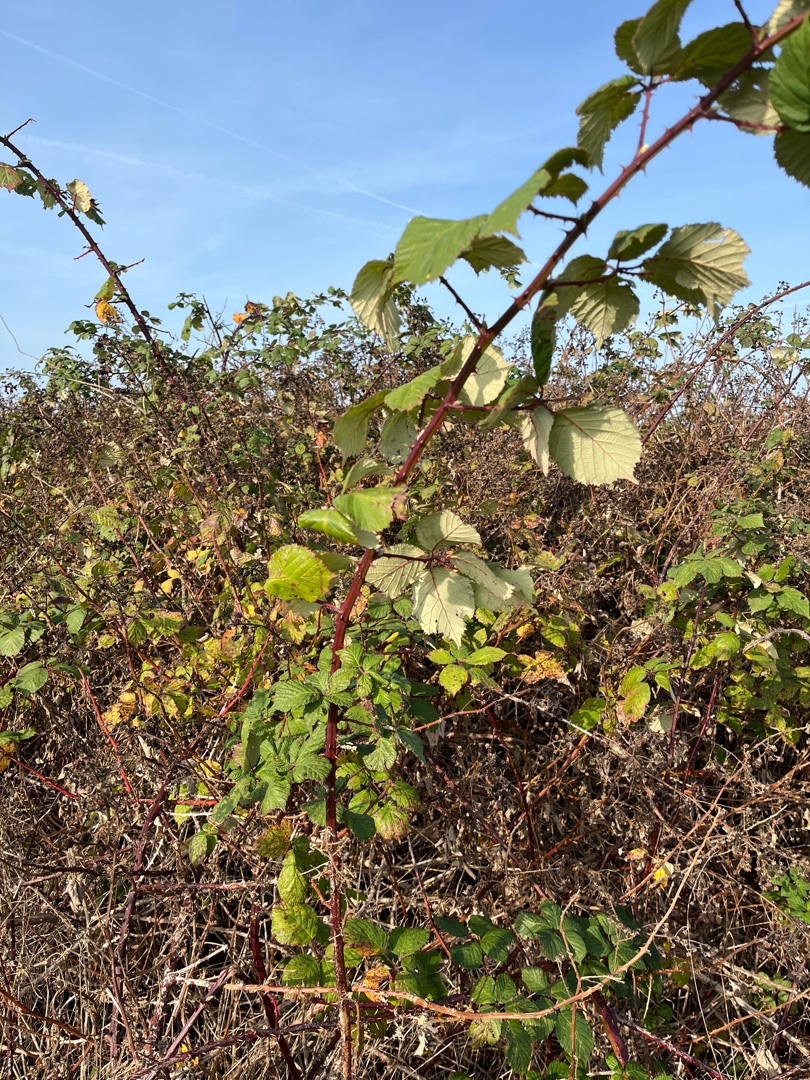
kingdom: Plantae
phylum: Tracheophyta
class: Magnoliopsida
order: Rosales
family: Rosaceae
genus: Rubus
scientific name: Rubus armeniacus
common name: Armensk brombær
